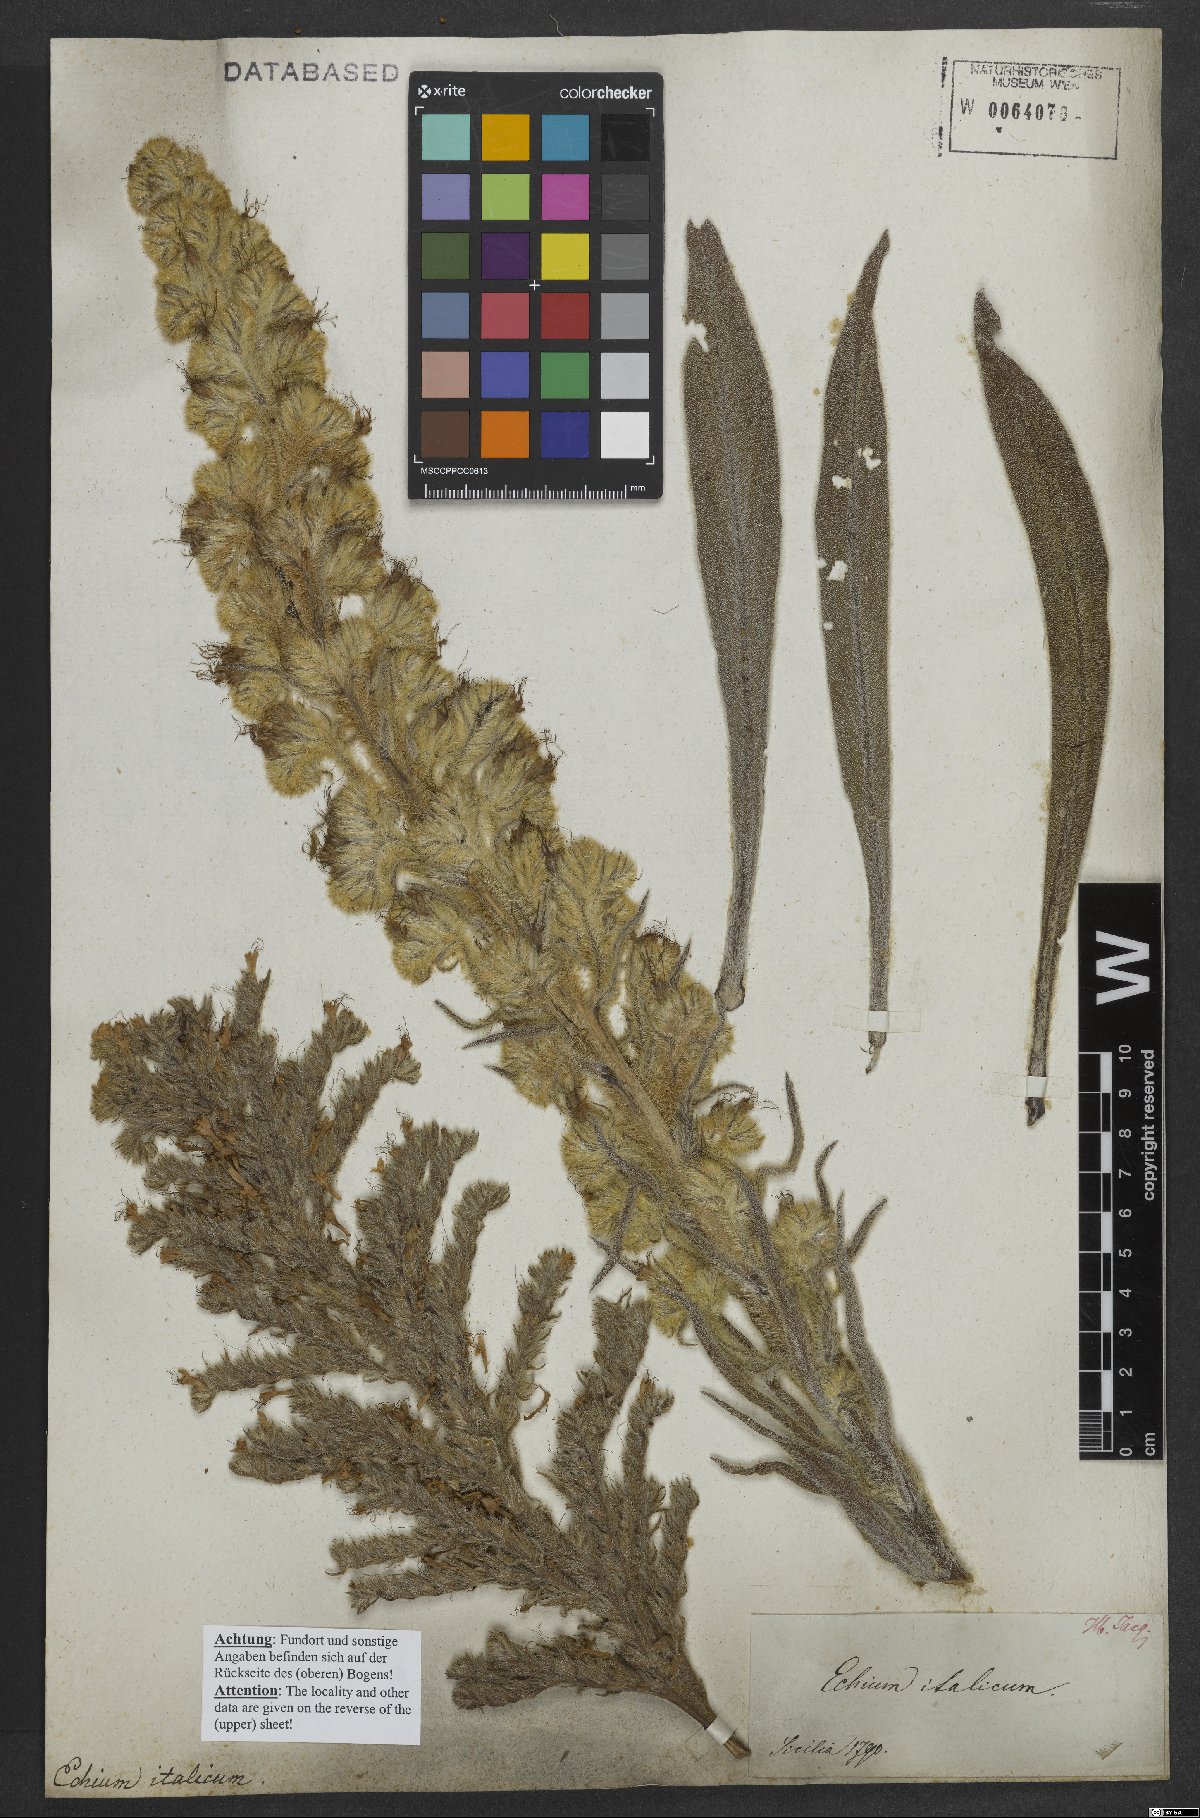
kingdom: Plantae
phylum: Tracheophyta
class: Magnoliopsida
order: Boraginales
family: Boraginaceae
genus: Echium
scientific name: Echium italicum
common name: Italian viper's bugloss
